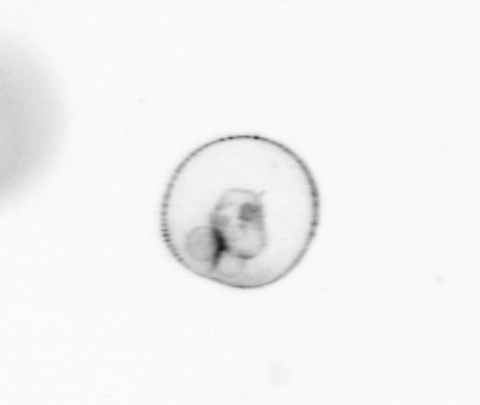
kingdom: Chromista
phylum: Myzozoa
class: Dinophyceae
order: Noctilucales
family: Noctilucaceae
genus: Noctiluca
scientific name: Noctiluca scintillans
